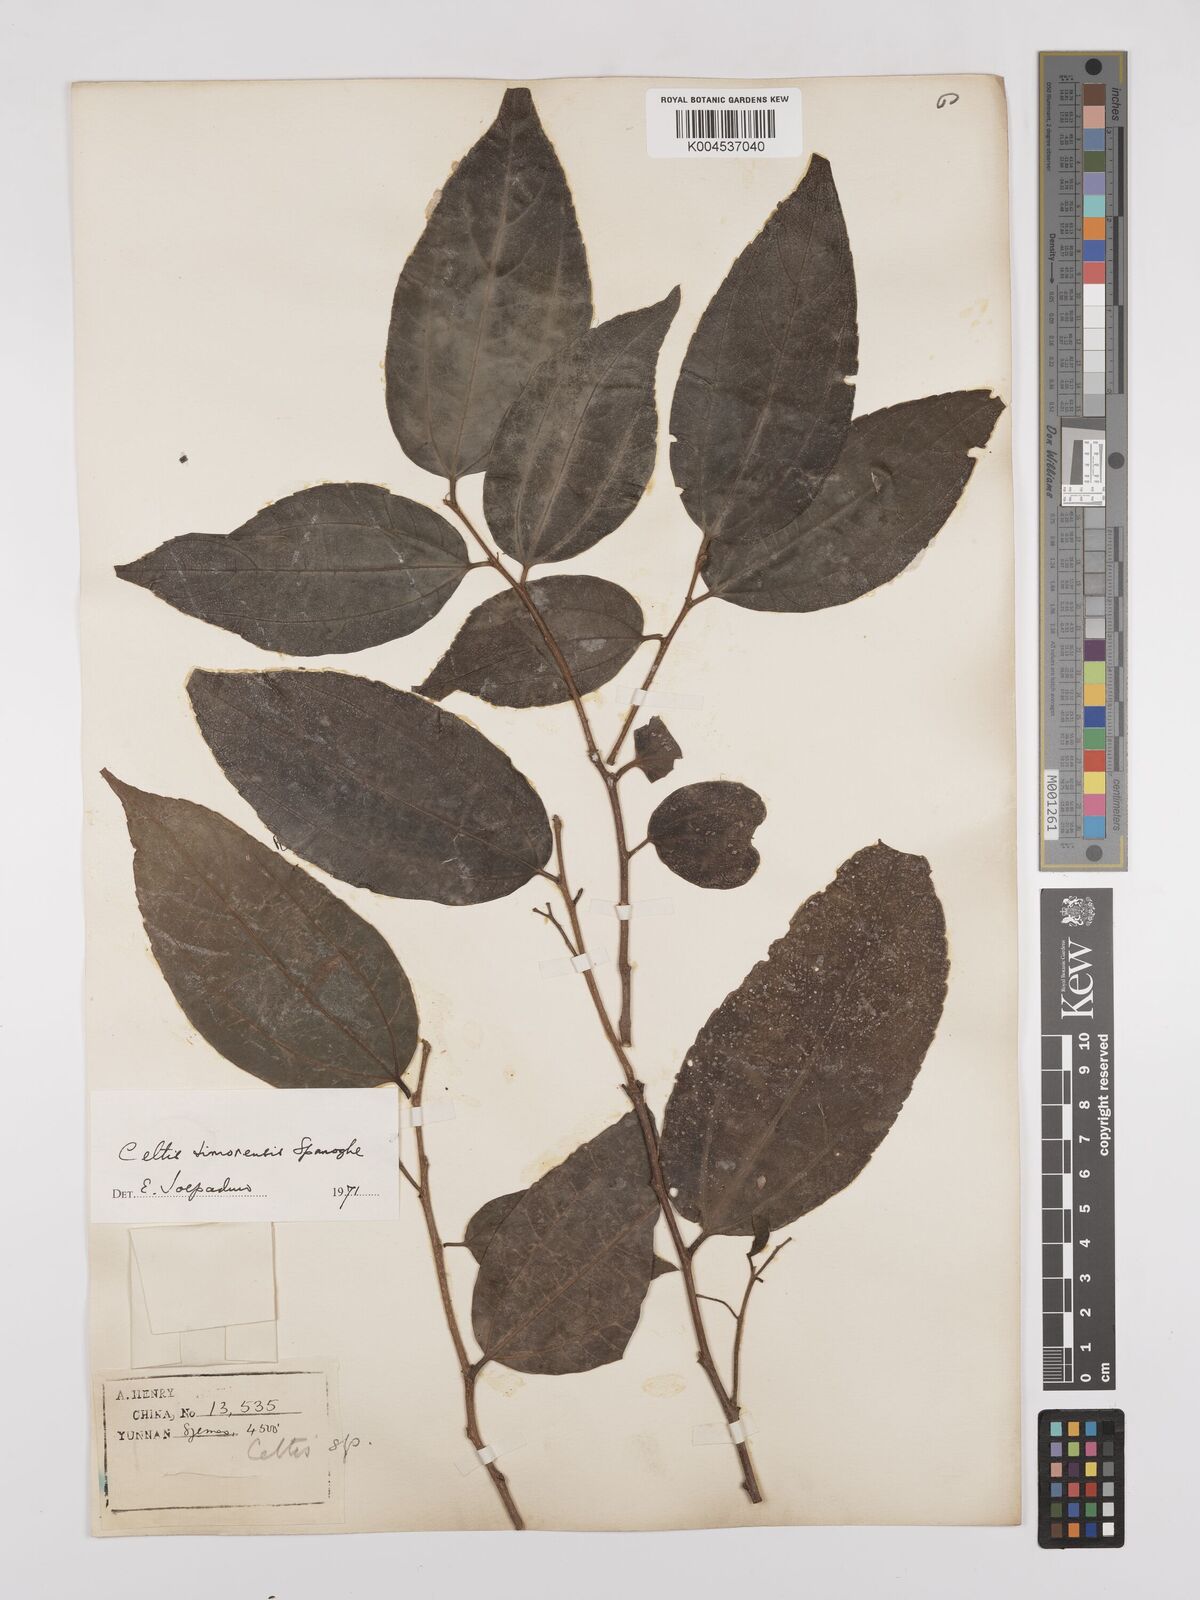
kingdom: Plantae
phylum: Tracheophyta
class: Magnoliopsida
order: Rosales
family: Cannabaceae
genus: Celtis
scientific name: Celtis timorensis
